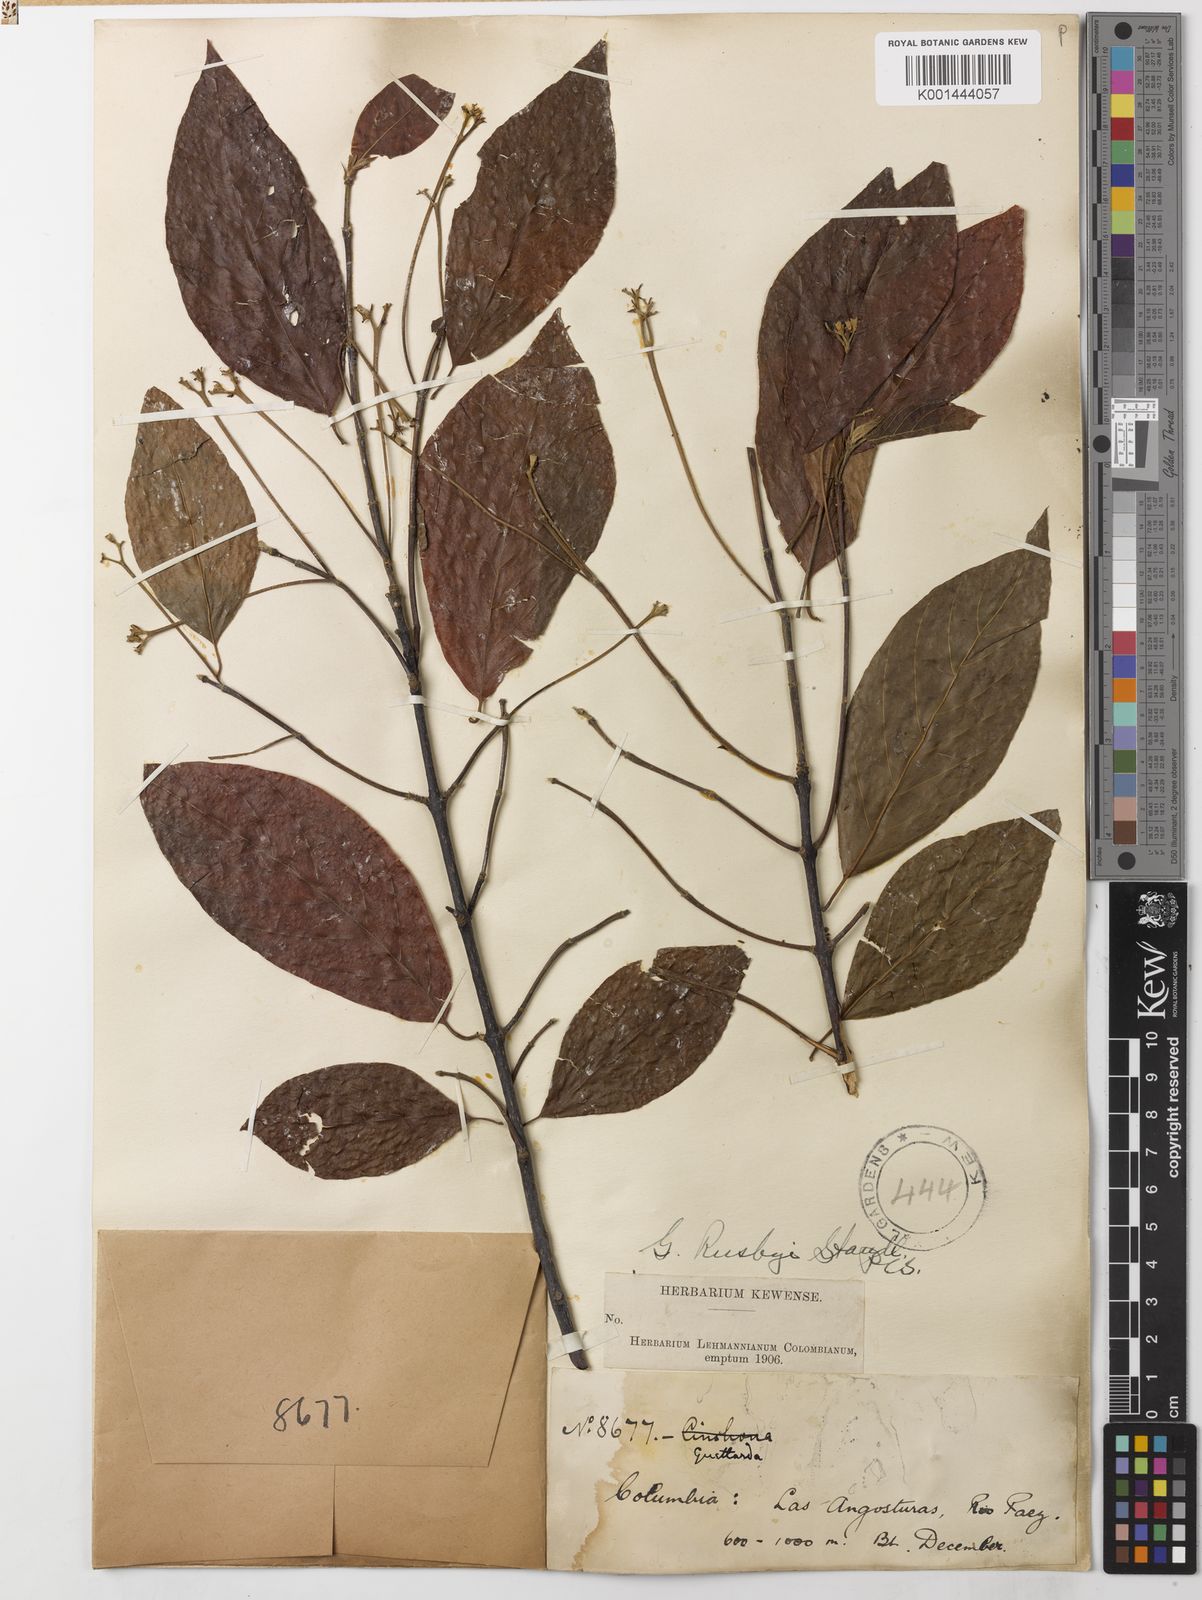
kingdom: Plantae
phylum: Tracheophyta
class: Magnoliopsida
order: Gentianales
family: Rubiaceae
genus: Guettarda
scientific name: Guettarda rusbyi
